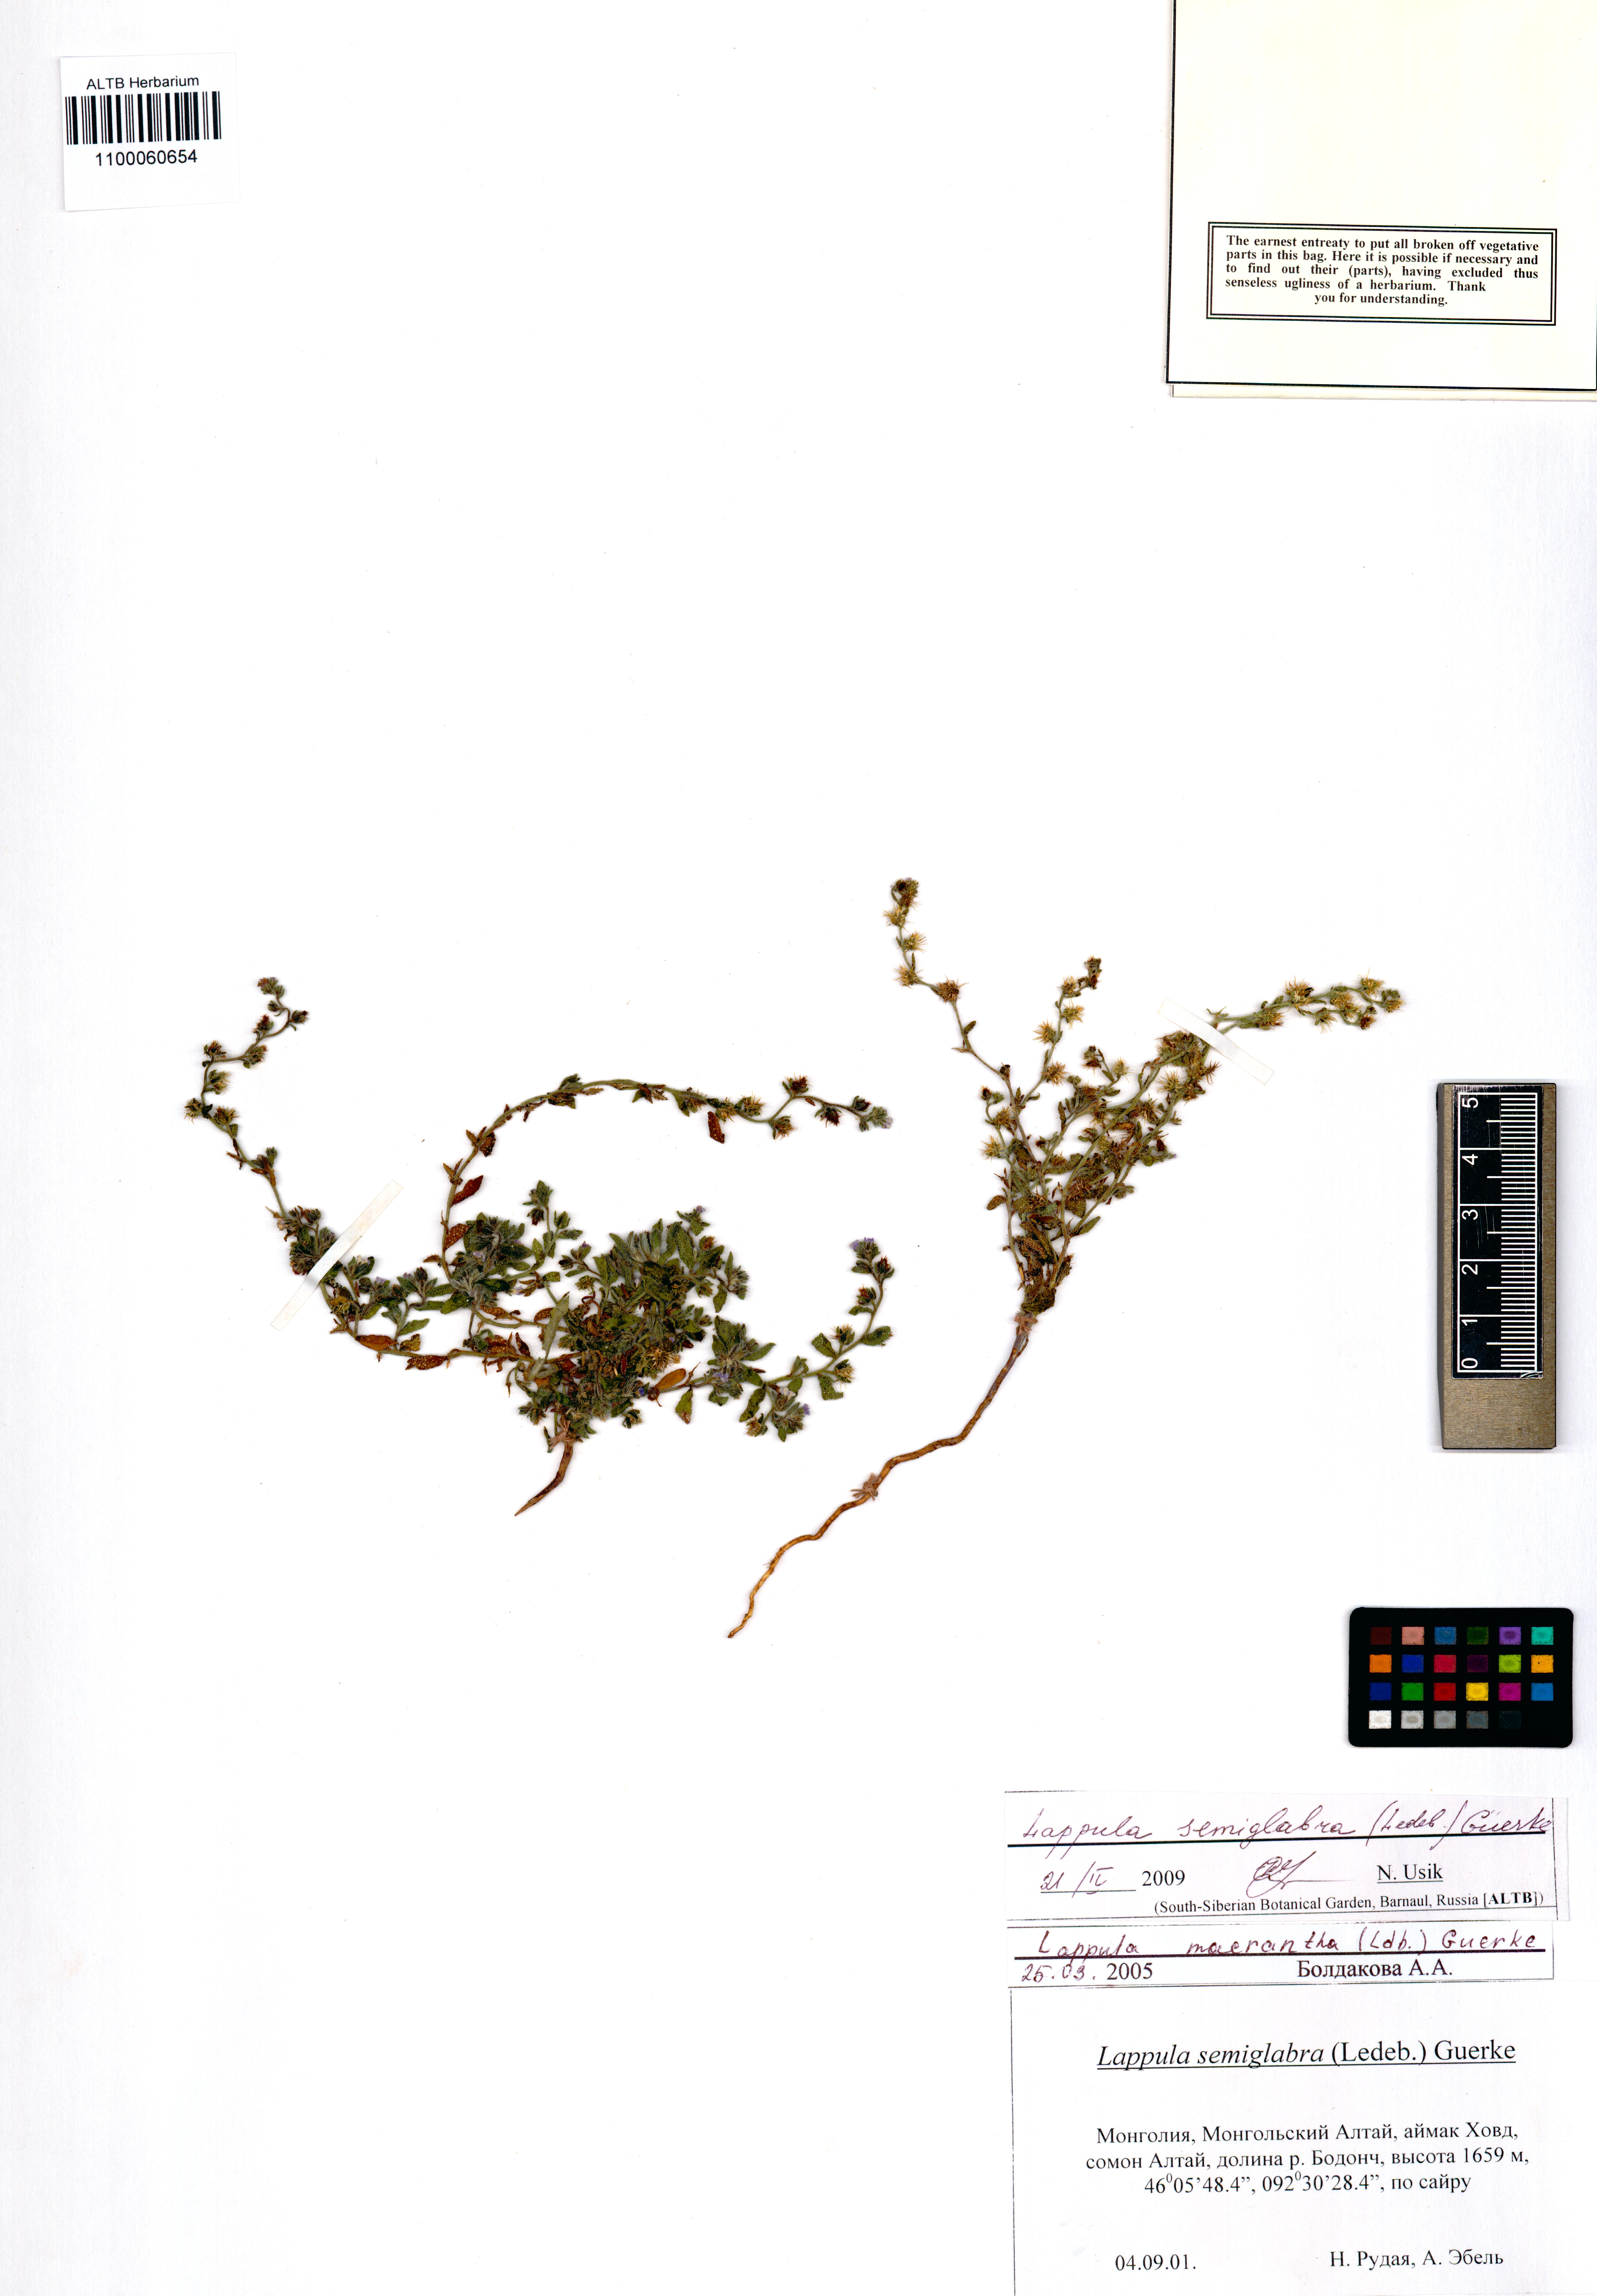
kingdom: Plantae
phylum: Tracheophyta
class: Magnoliopsida
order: Boraginales
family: Boraginaceae
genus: Lappula
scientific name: Lappula patula
